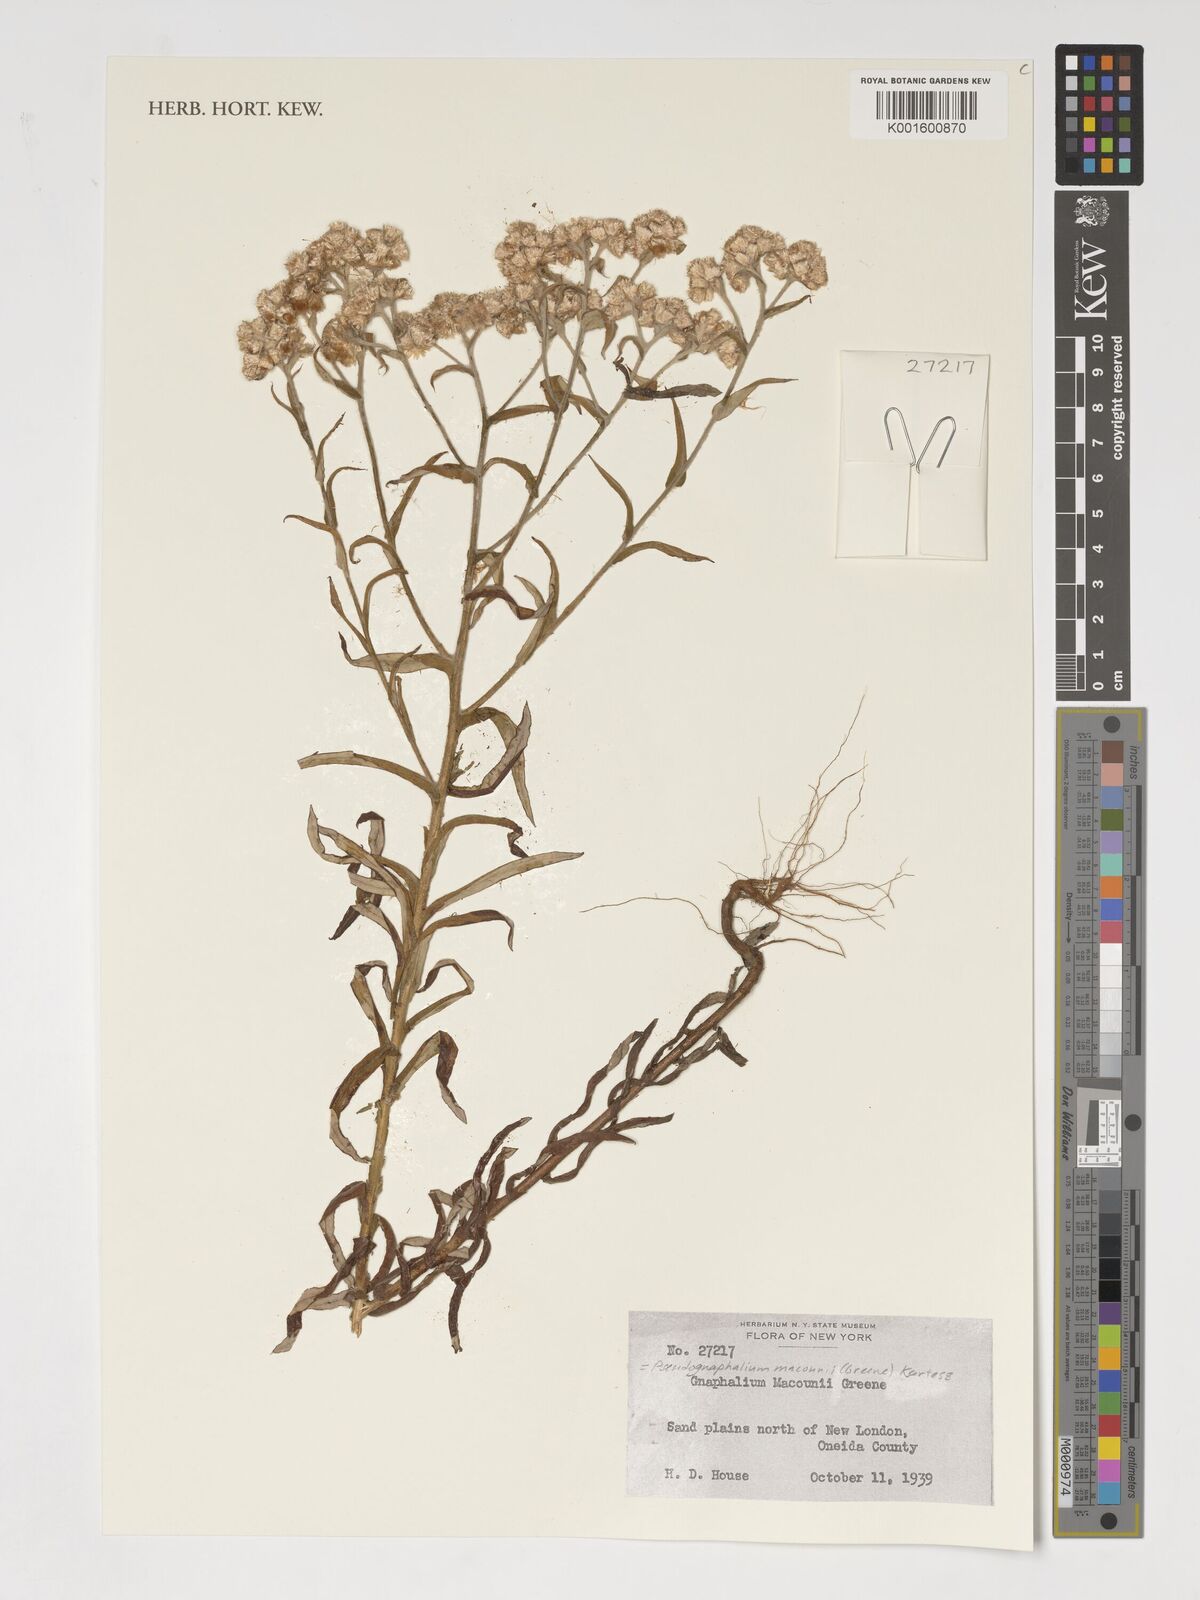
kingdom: Plantae
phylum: Tracheophyta
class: Magnoliopsida
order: Asterales
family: Asteraceae
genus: Pseudognaphalium
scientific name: Pseudognaphalium macounii
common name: Clammy cudweed
